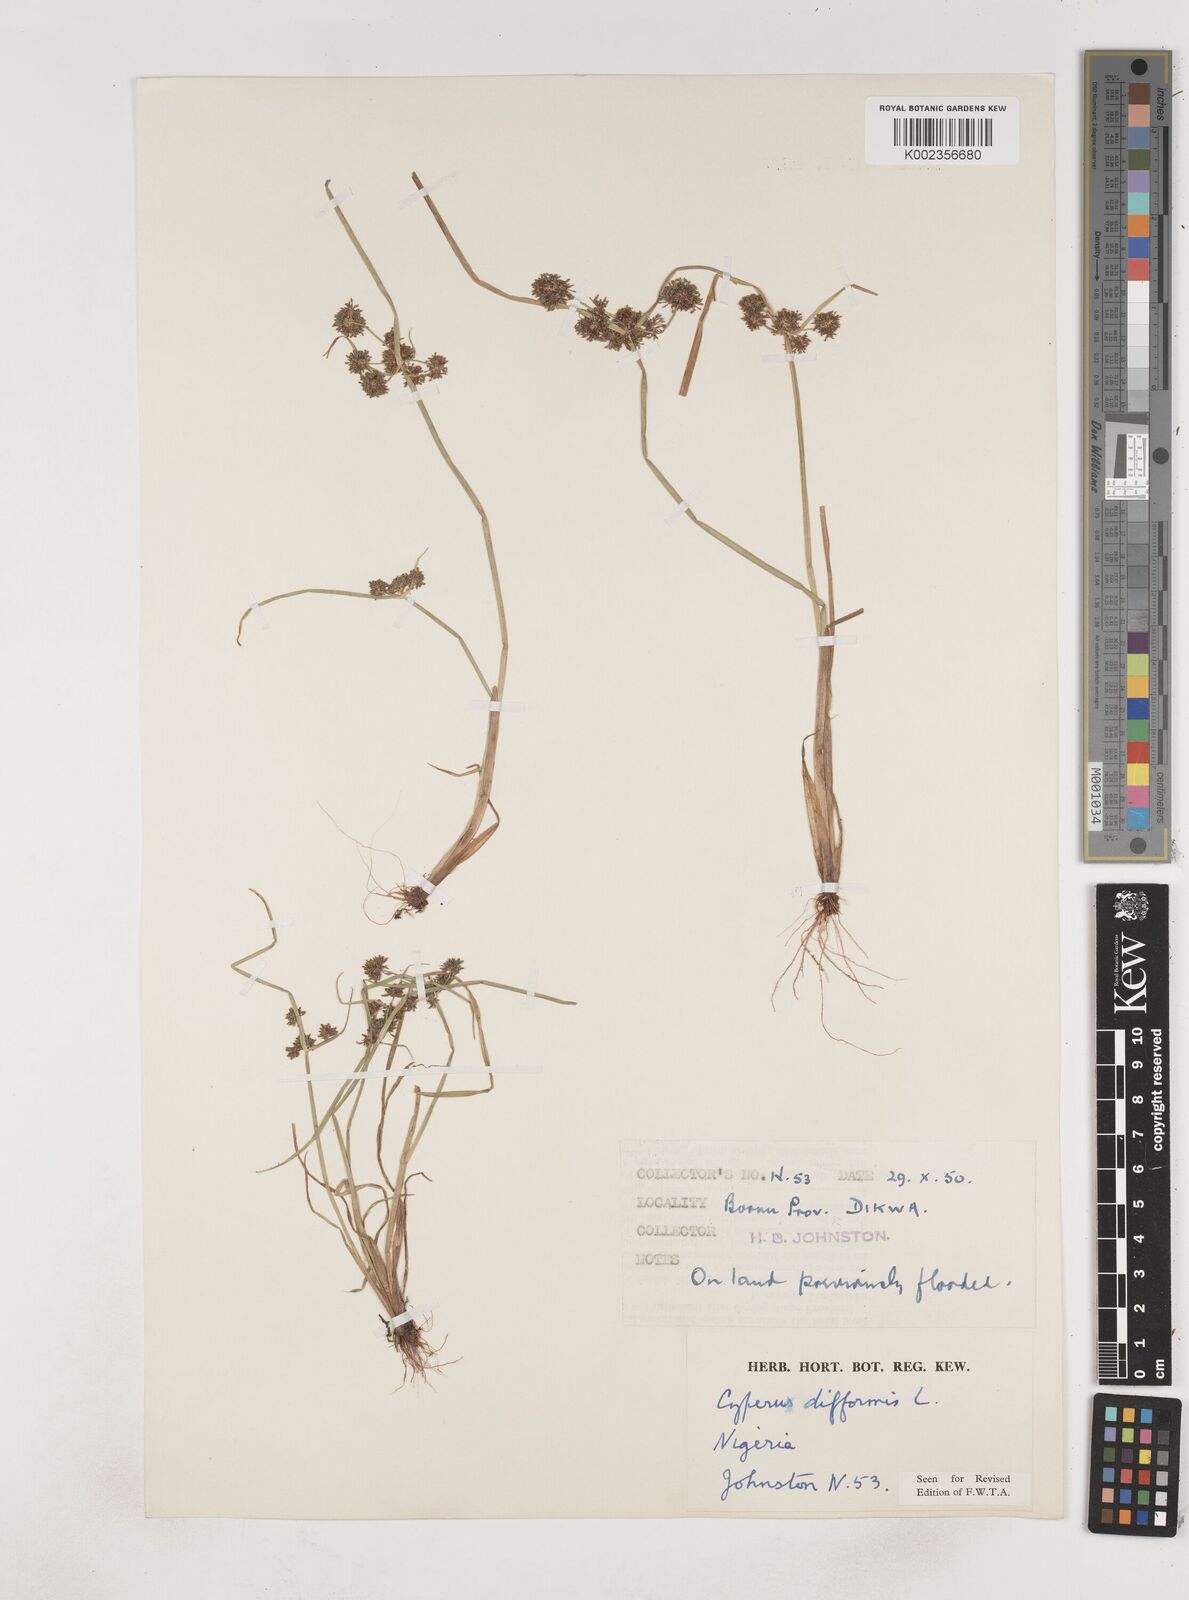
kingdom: Plantae
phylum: Tracheophyta
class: Liliopsida
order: Poales
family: Cyperaceae
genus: Cyperus
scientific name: Cyperus difformis
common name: Variable flatsedge
